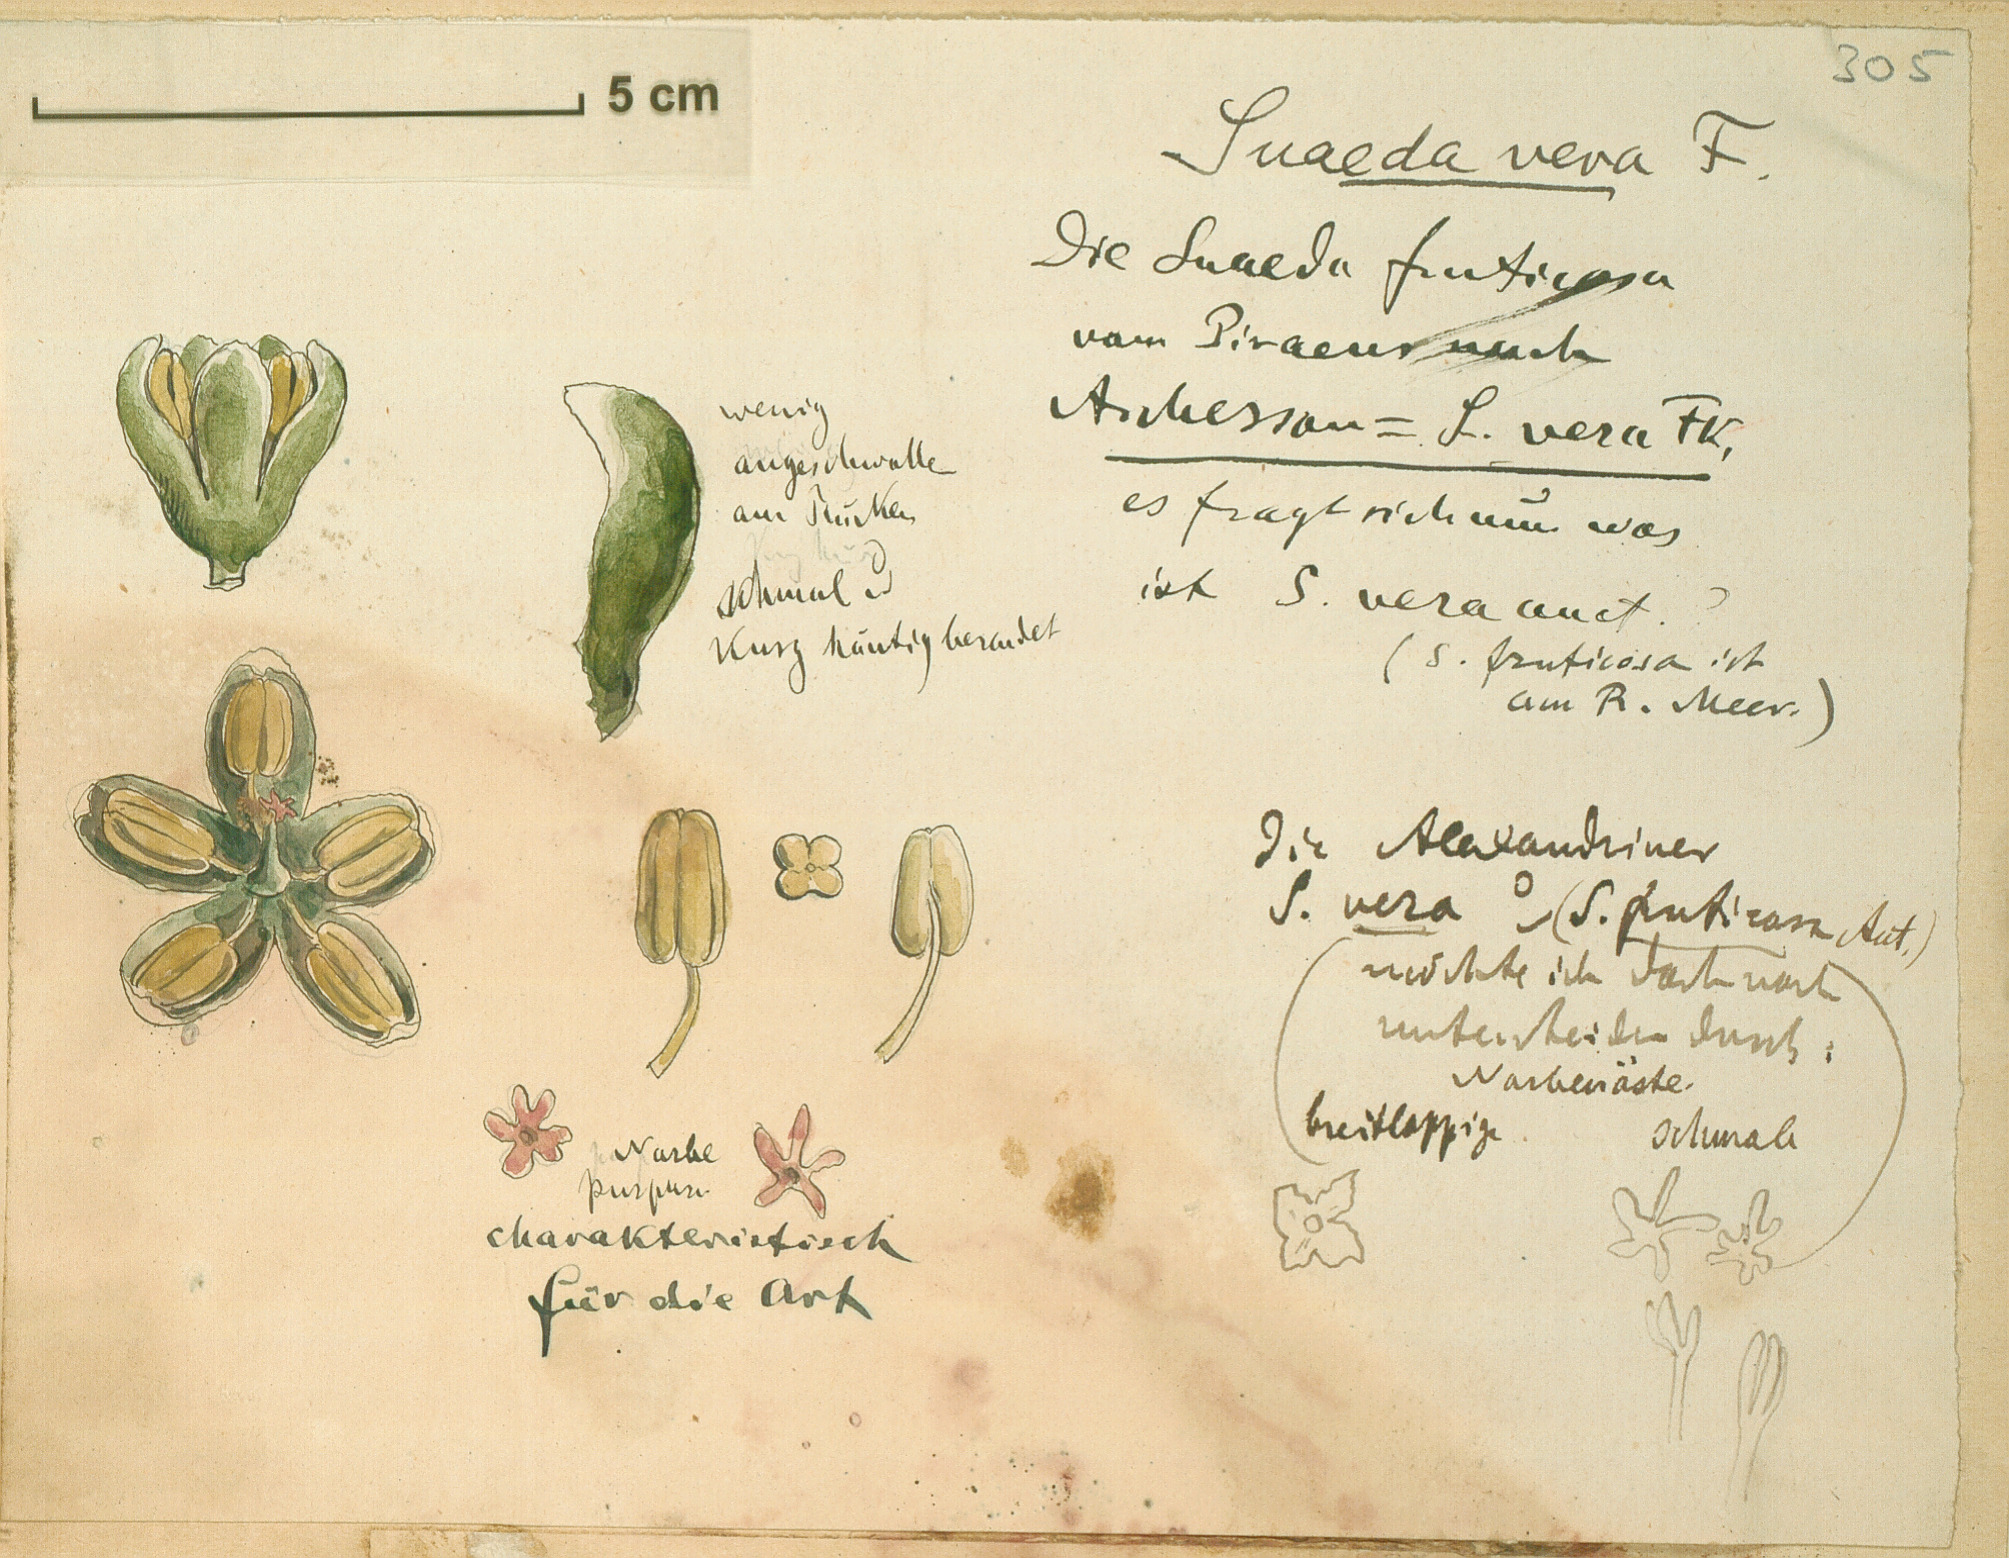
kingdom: Plantae
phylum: Tracheophyta
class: Magnoliopsida
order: Caryophyllales
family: Amaranthaceae
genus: Suaeda
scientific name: Suaeda vera
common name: Shrubby sea-blite
